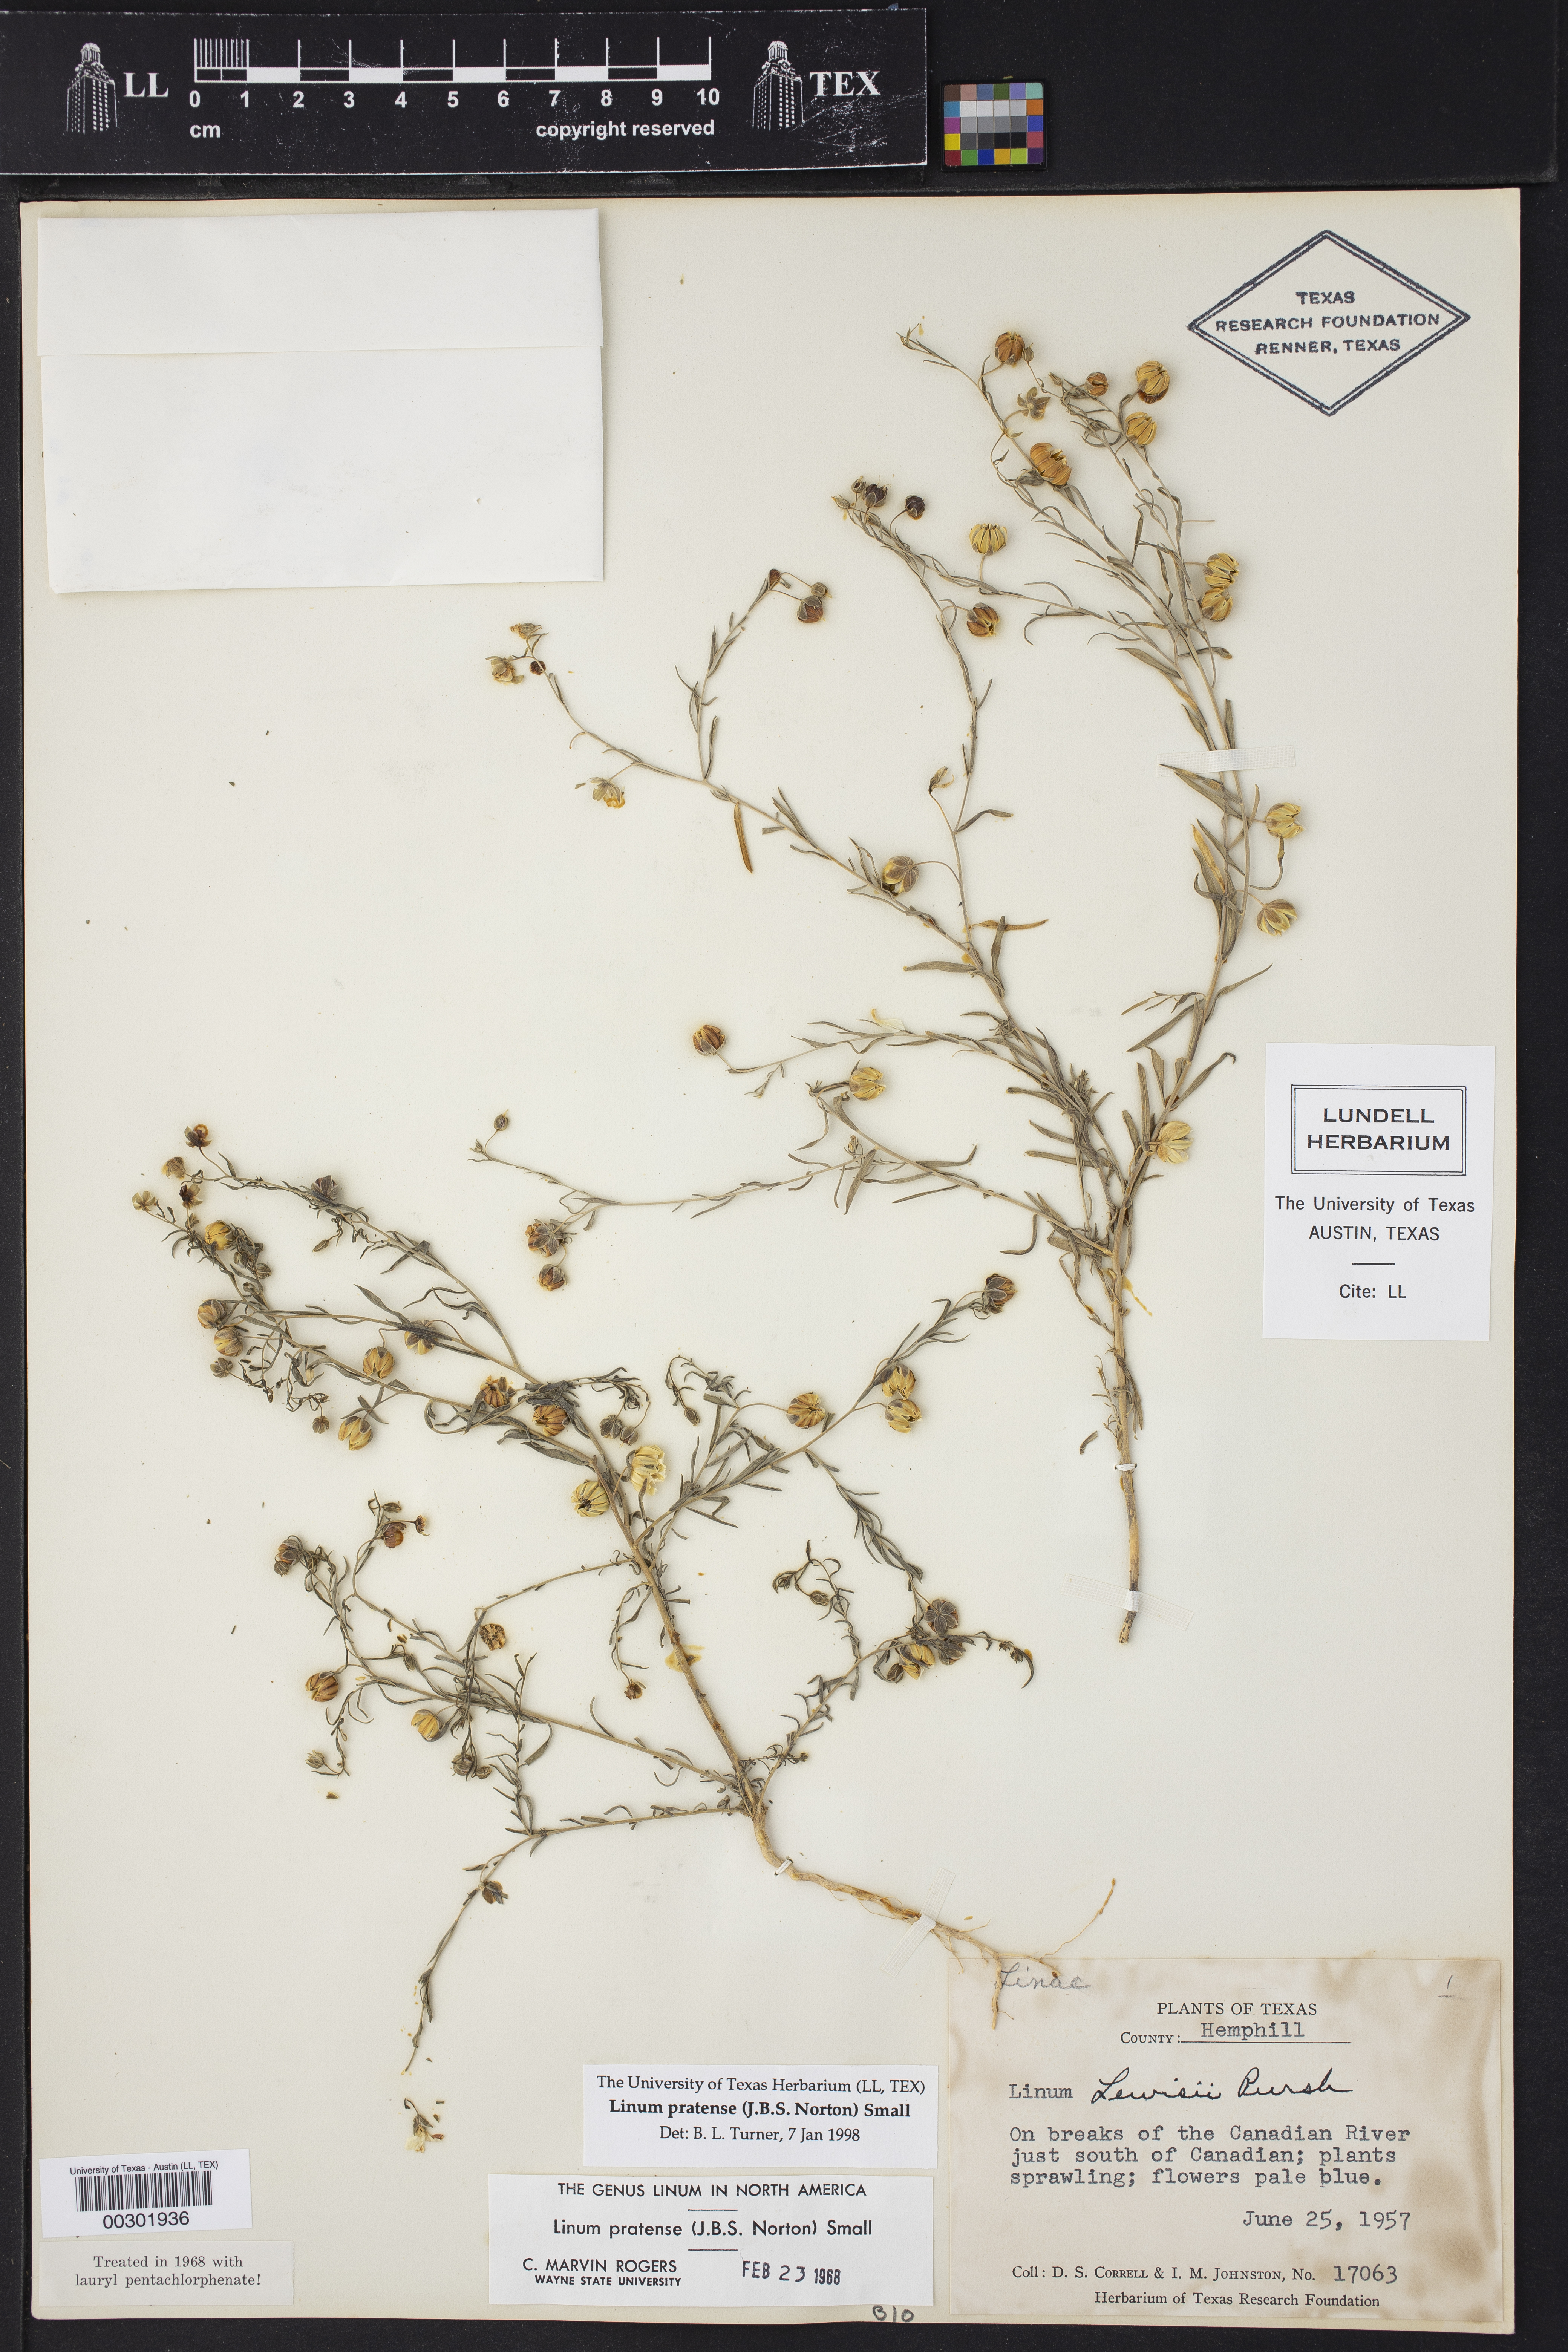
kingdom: Plantae
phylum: Tracheophyta
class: Magnoliopsida
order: Malpighiales
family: Linaceae
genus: Linum
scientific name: Linum pratense
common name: Norton's flax
